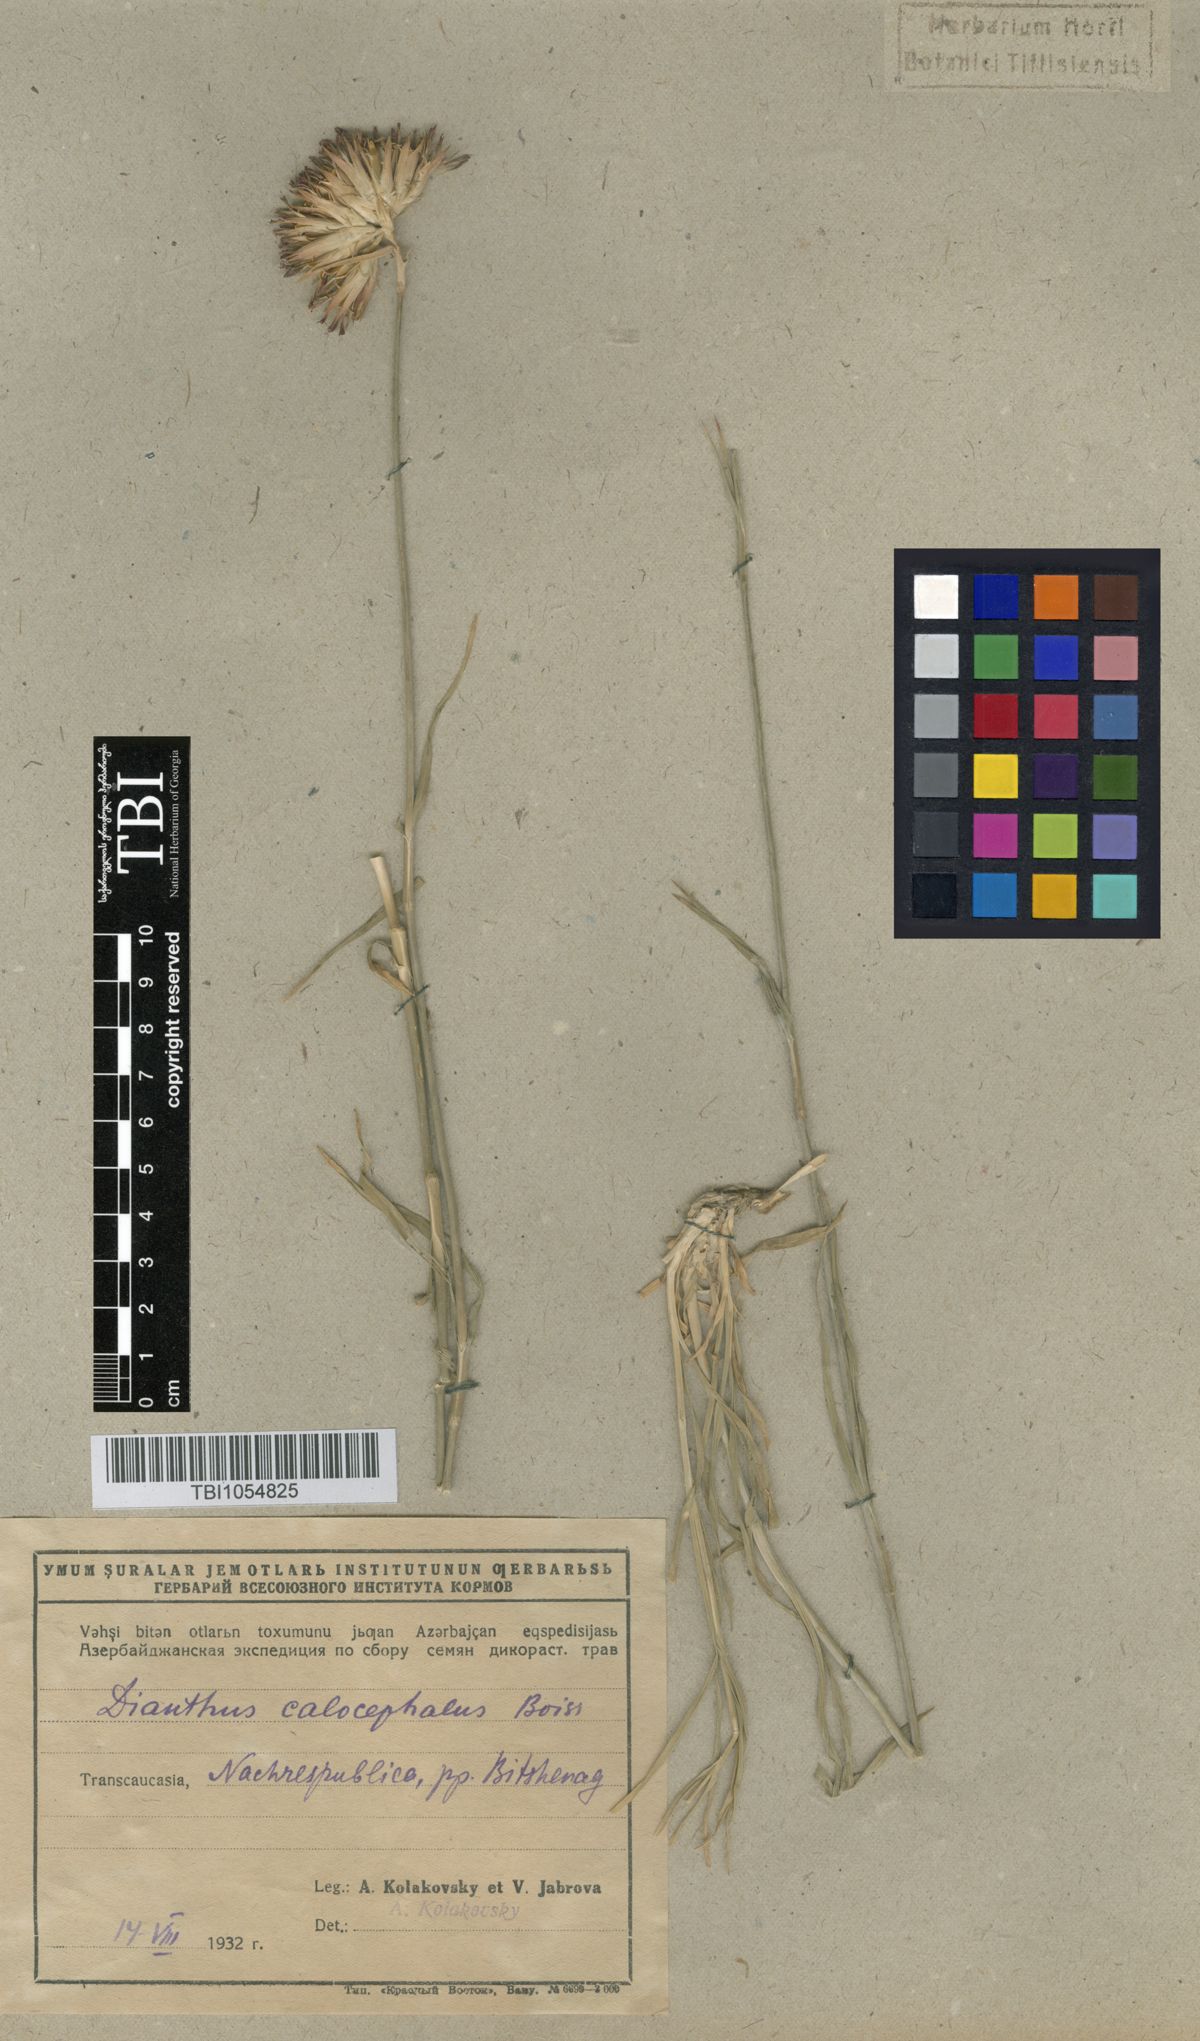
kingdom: Plantae
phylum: Tracheophyta
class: Magnoliopsida
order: Caryophyllales
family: Caryophyllaceae
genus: Dianthus
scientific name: Dianthus cruentus
